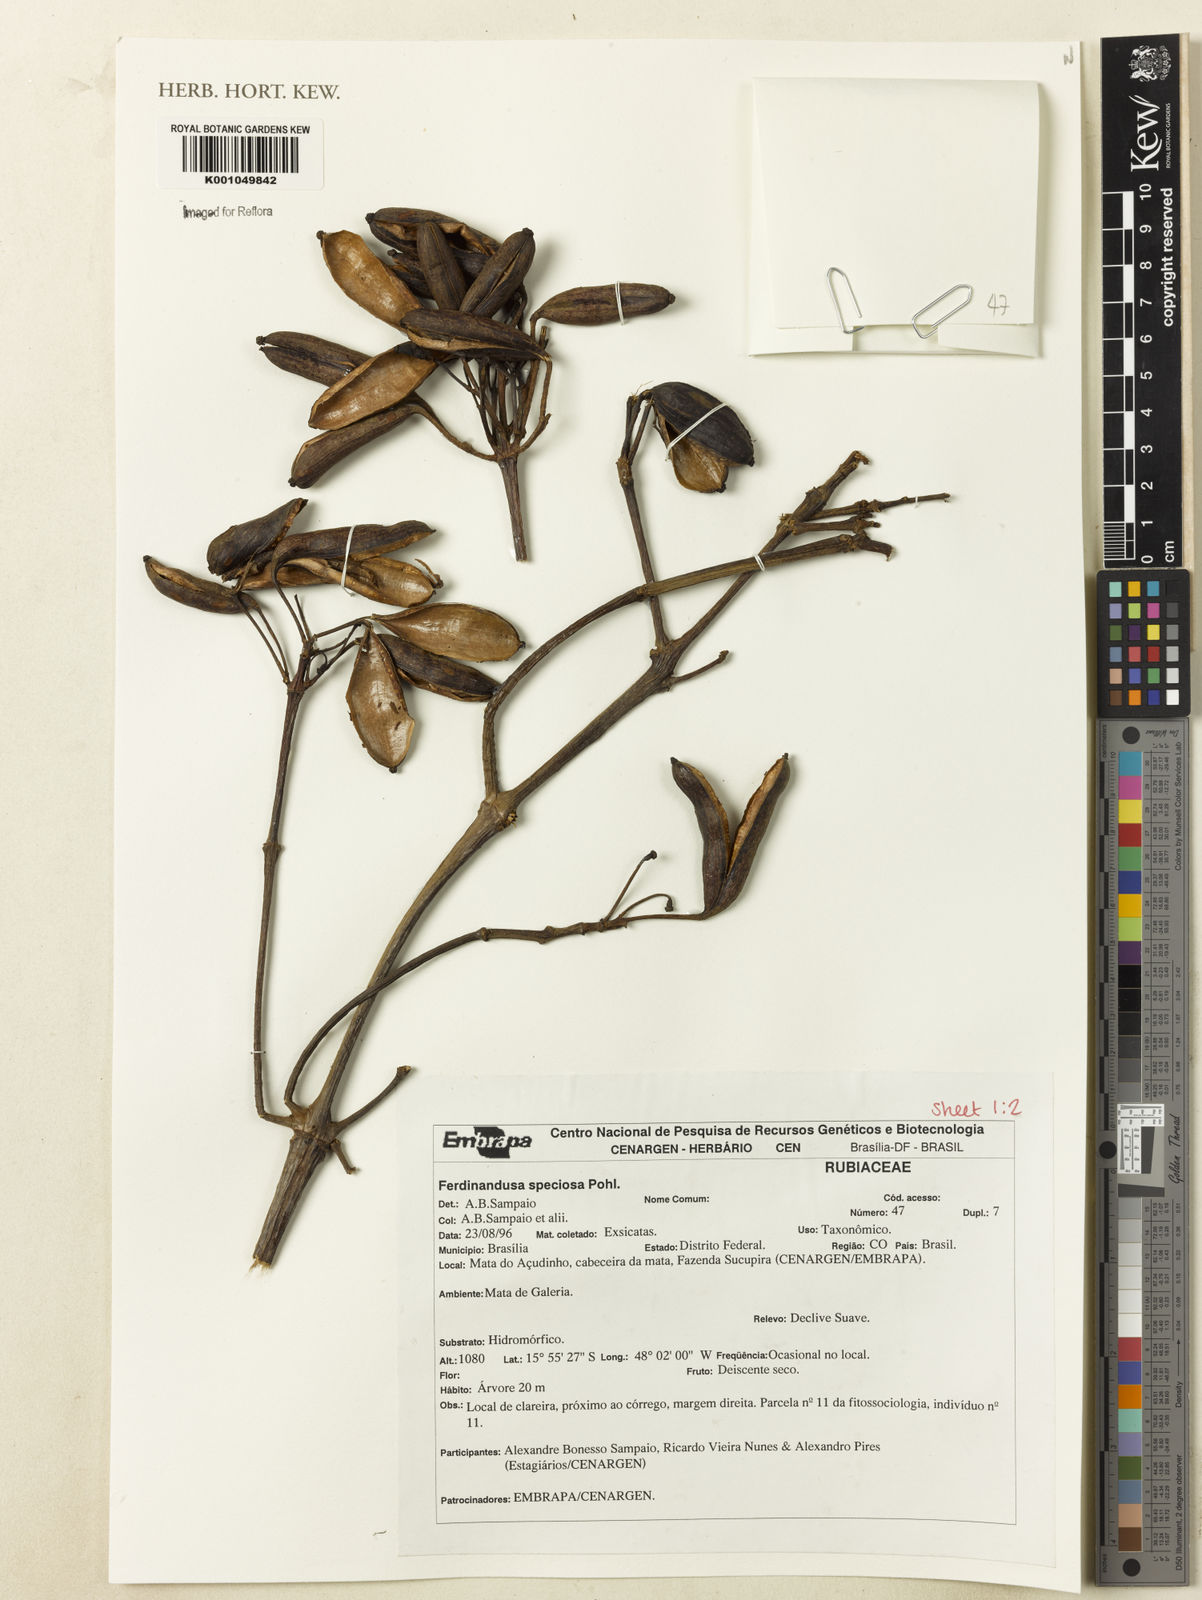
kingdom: Plantae
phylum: Tracheophyta
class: Magnoliopsida
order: Gentianales
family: Rubiaceae
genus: Ferdinandusa
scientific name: Ferdinandusa speciosa
